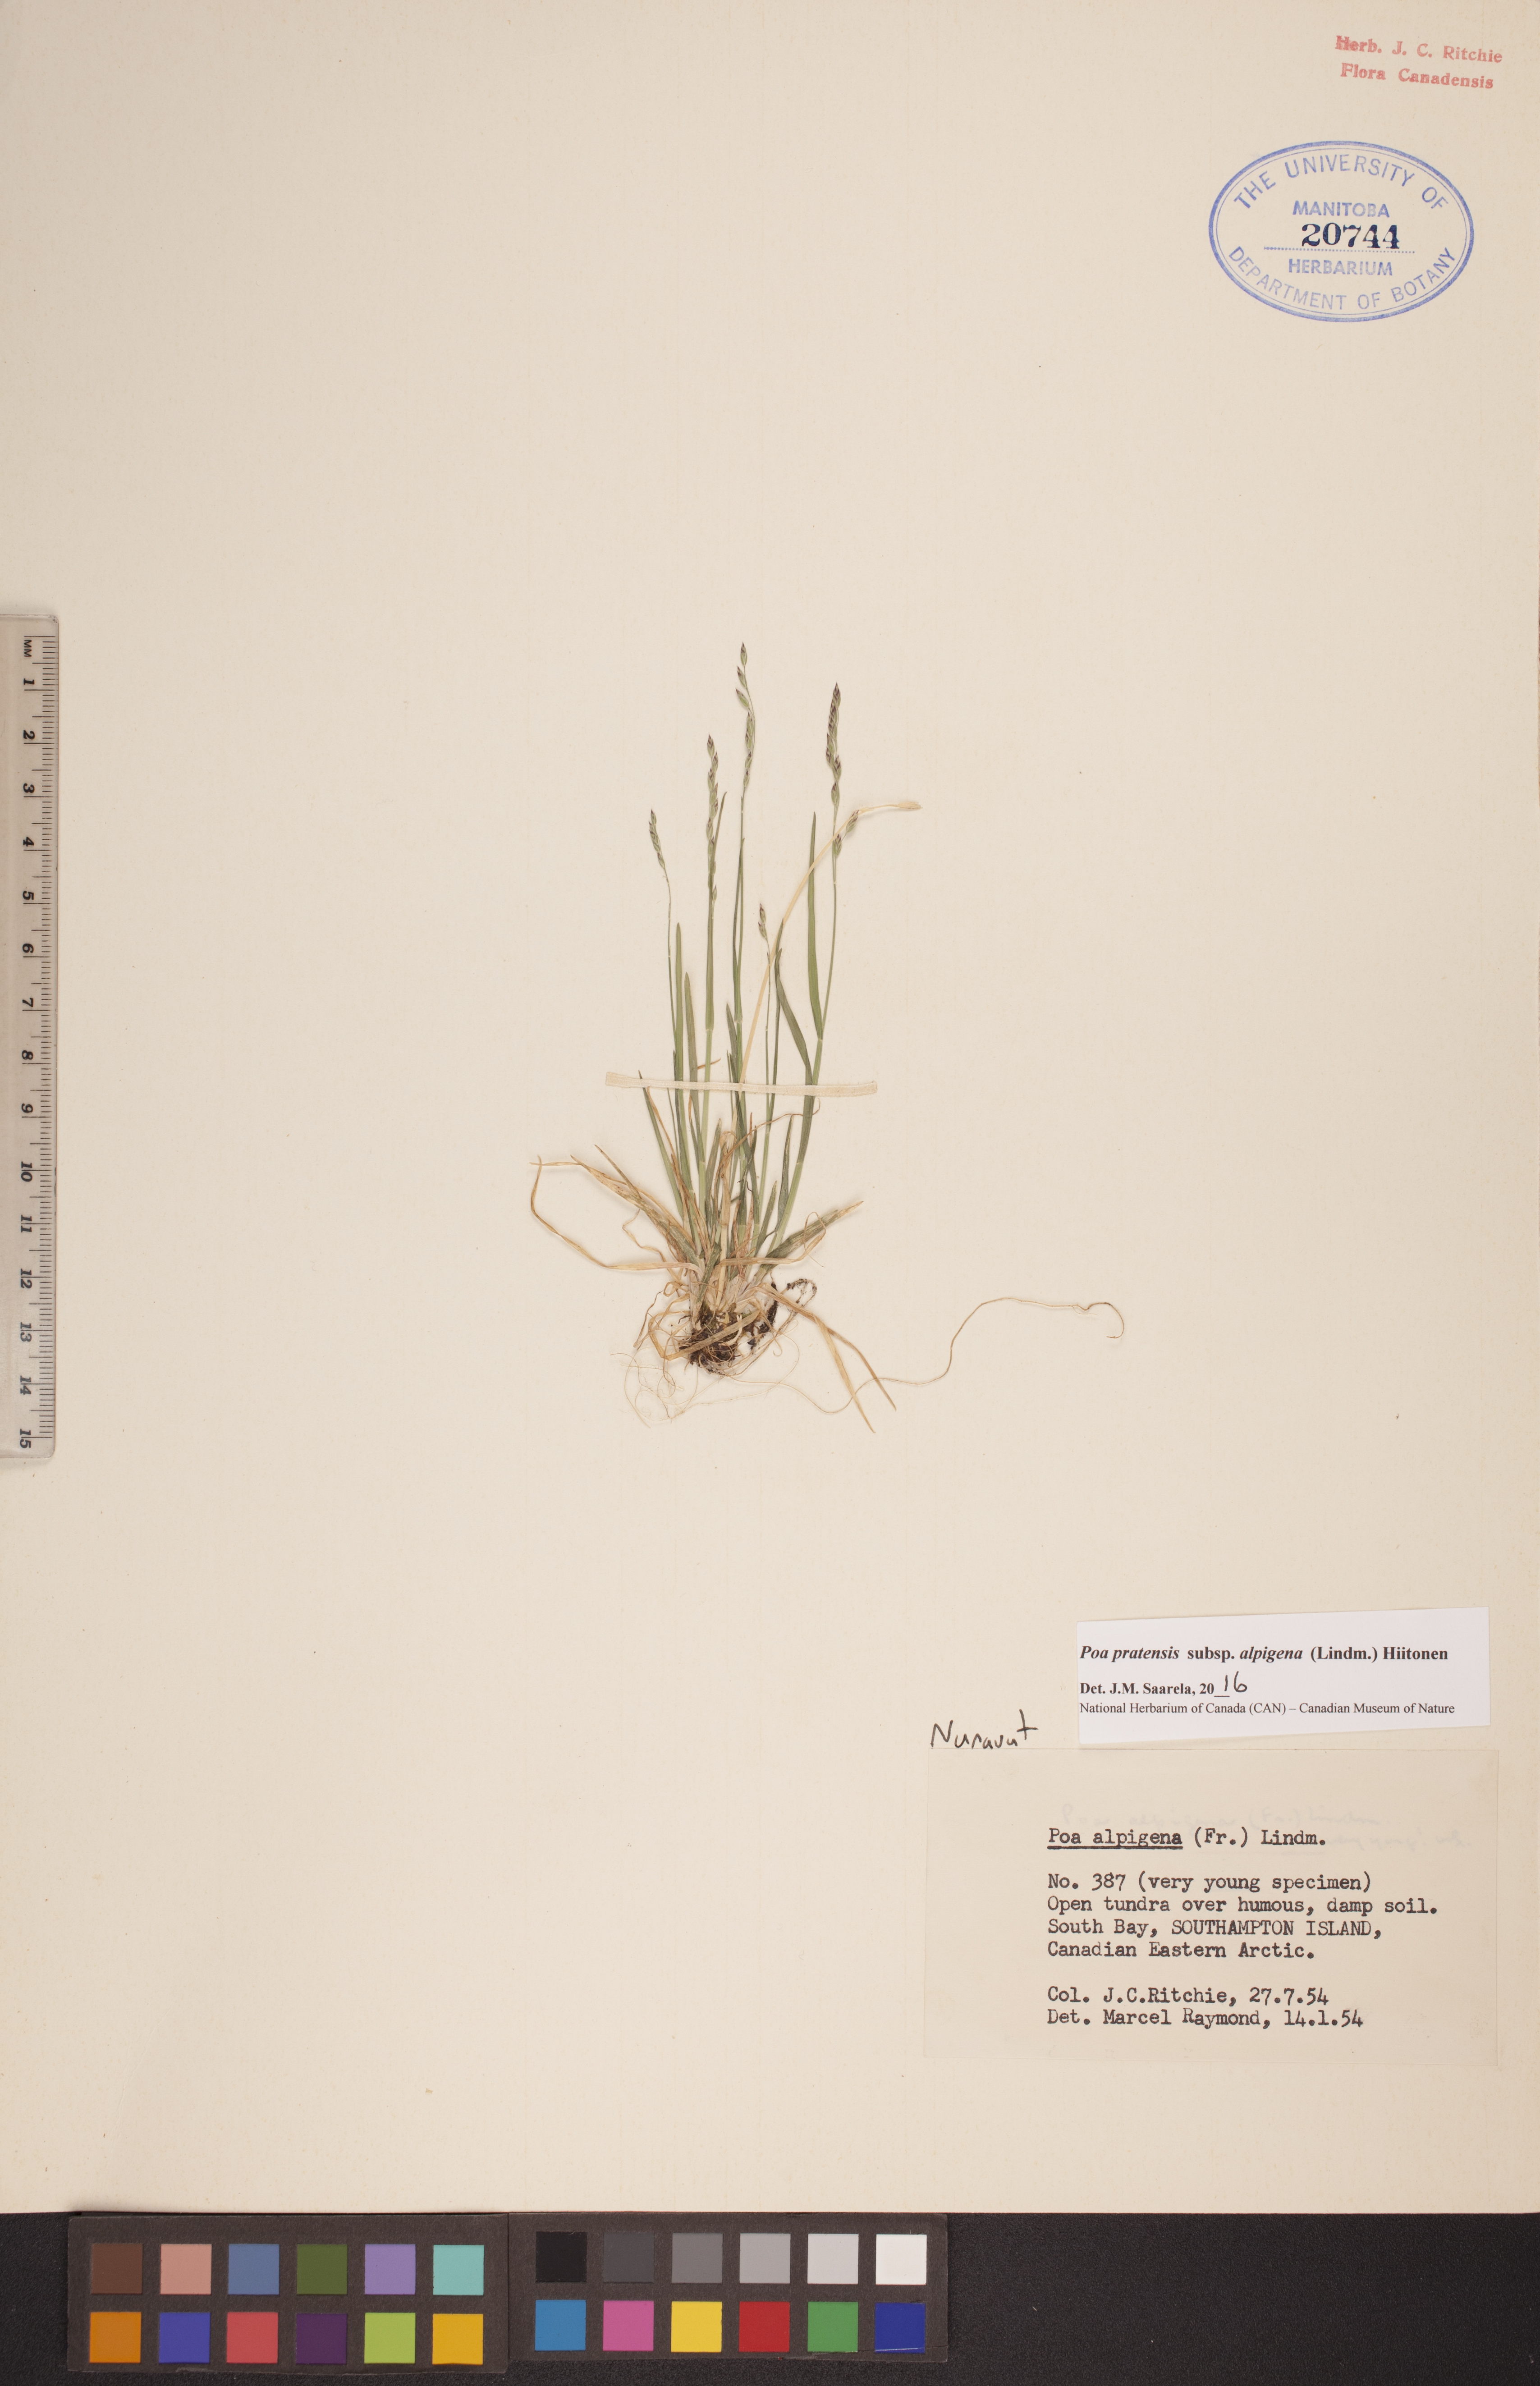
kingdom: Plantae
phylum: Tracheophyta
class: Liliopsida
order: Poales
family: Poaceae
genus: Poa
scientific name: Poa alpigena
